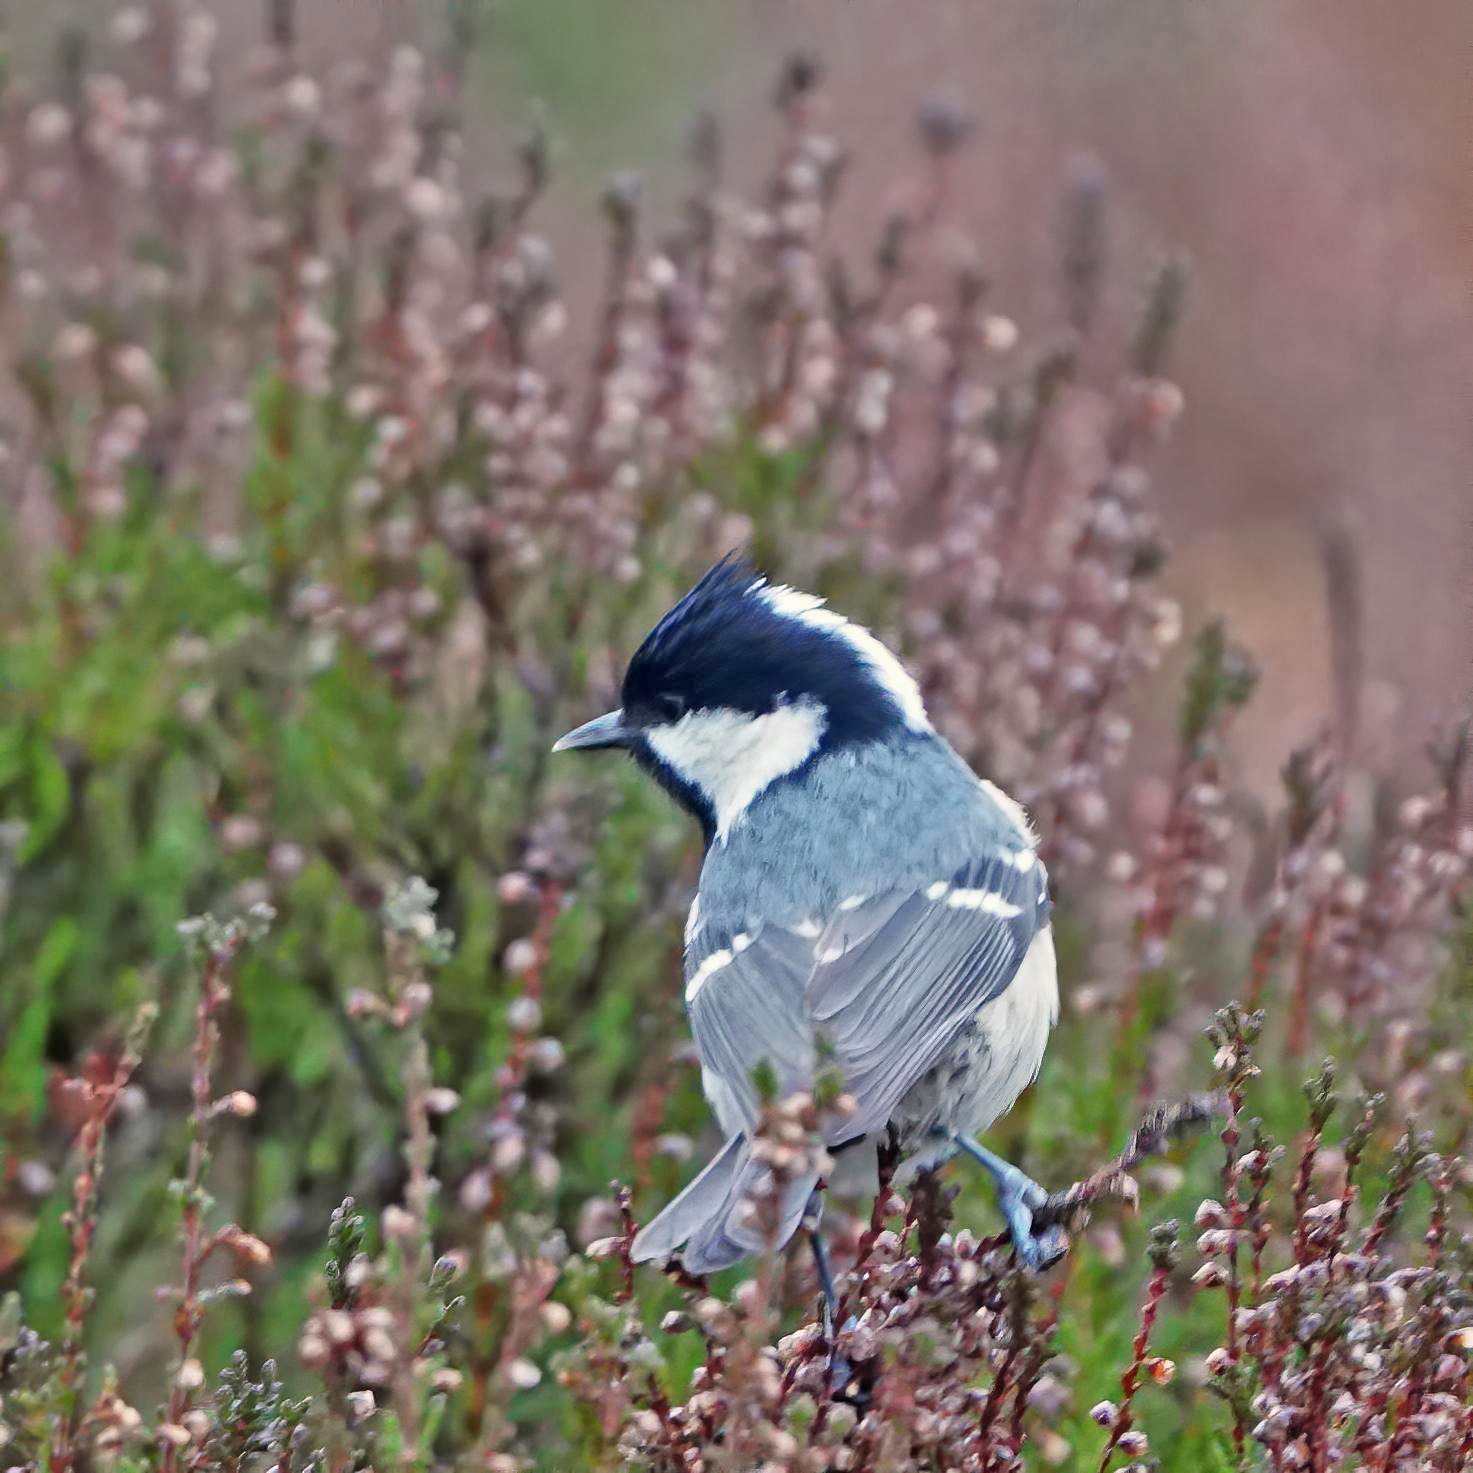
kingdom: Animalia
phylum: Chordata
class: Aves
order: Passeriformes
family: Paridae
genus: Periparus
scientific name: Periparus ater
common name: Sortmejse
